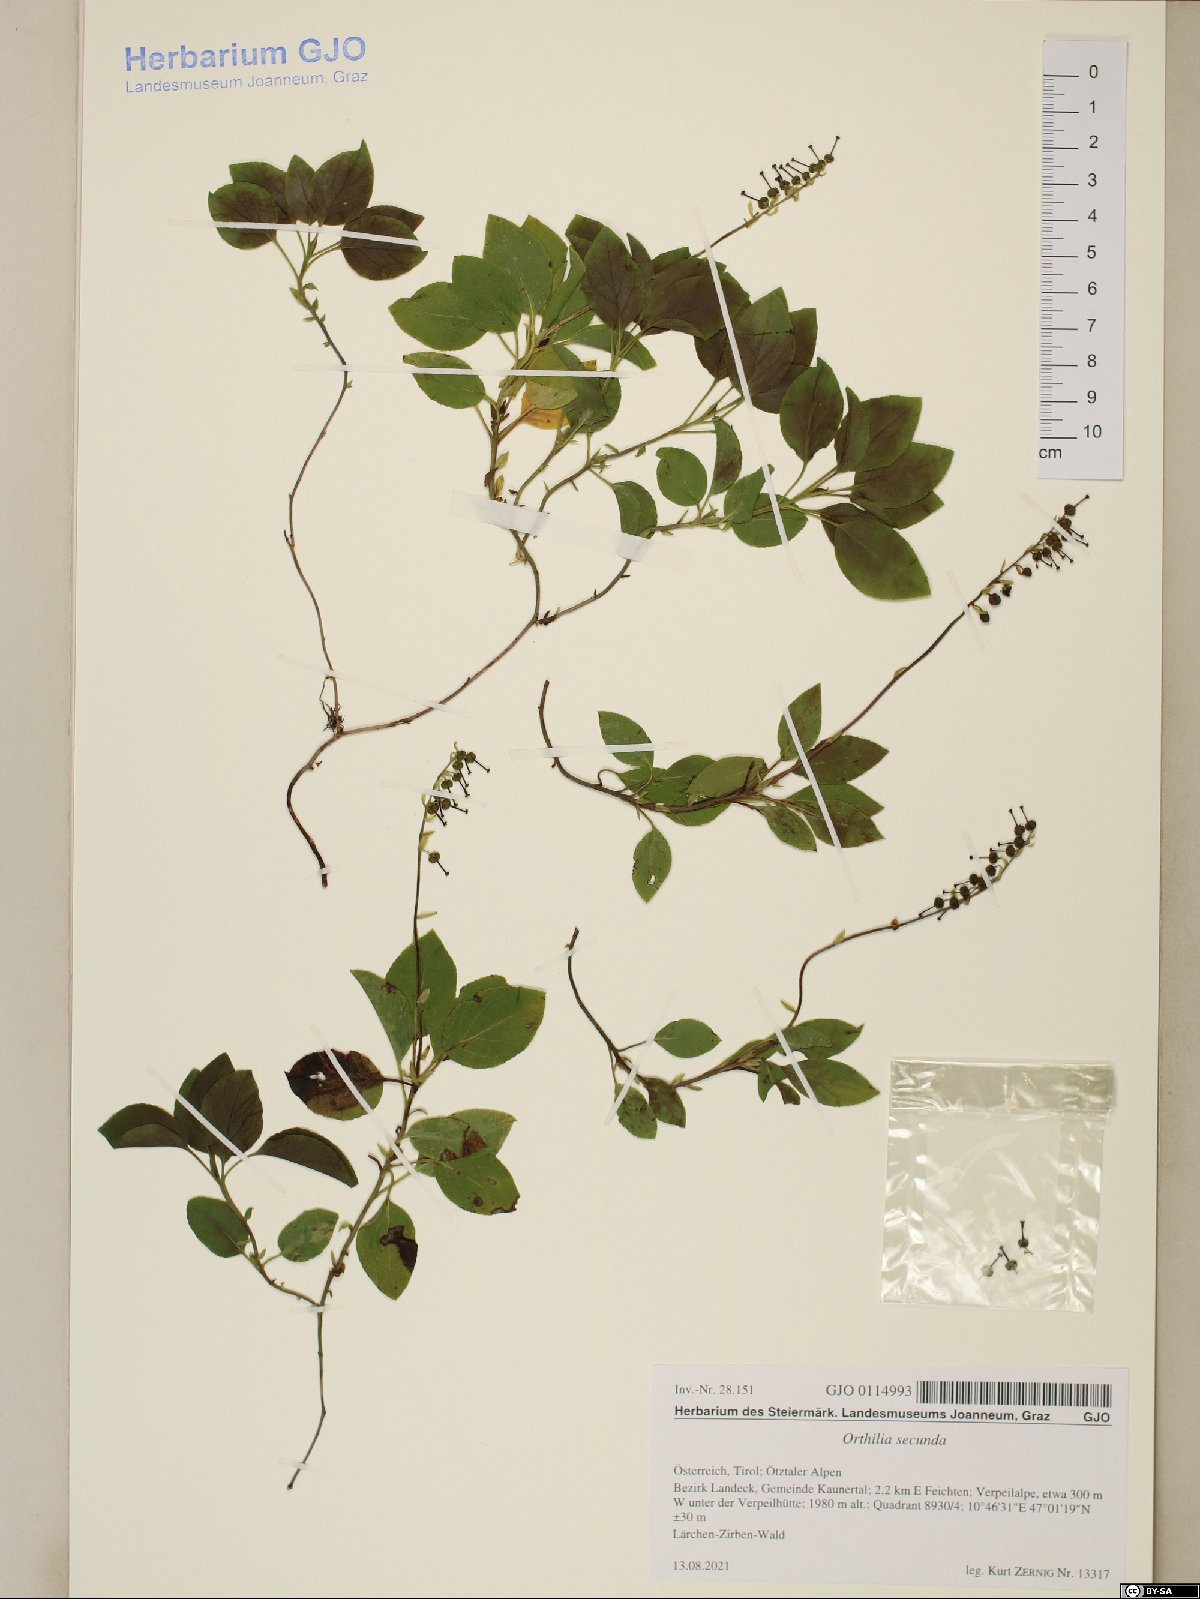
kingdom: Plantae
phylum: Tracheophyta
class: Magnoliopsida
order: Ericales
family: Ericaceae
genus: Orthilia
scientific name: Orthilia secunda
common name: One-sided orthilia
